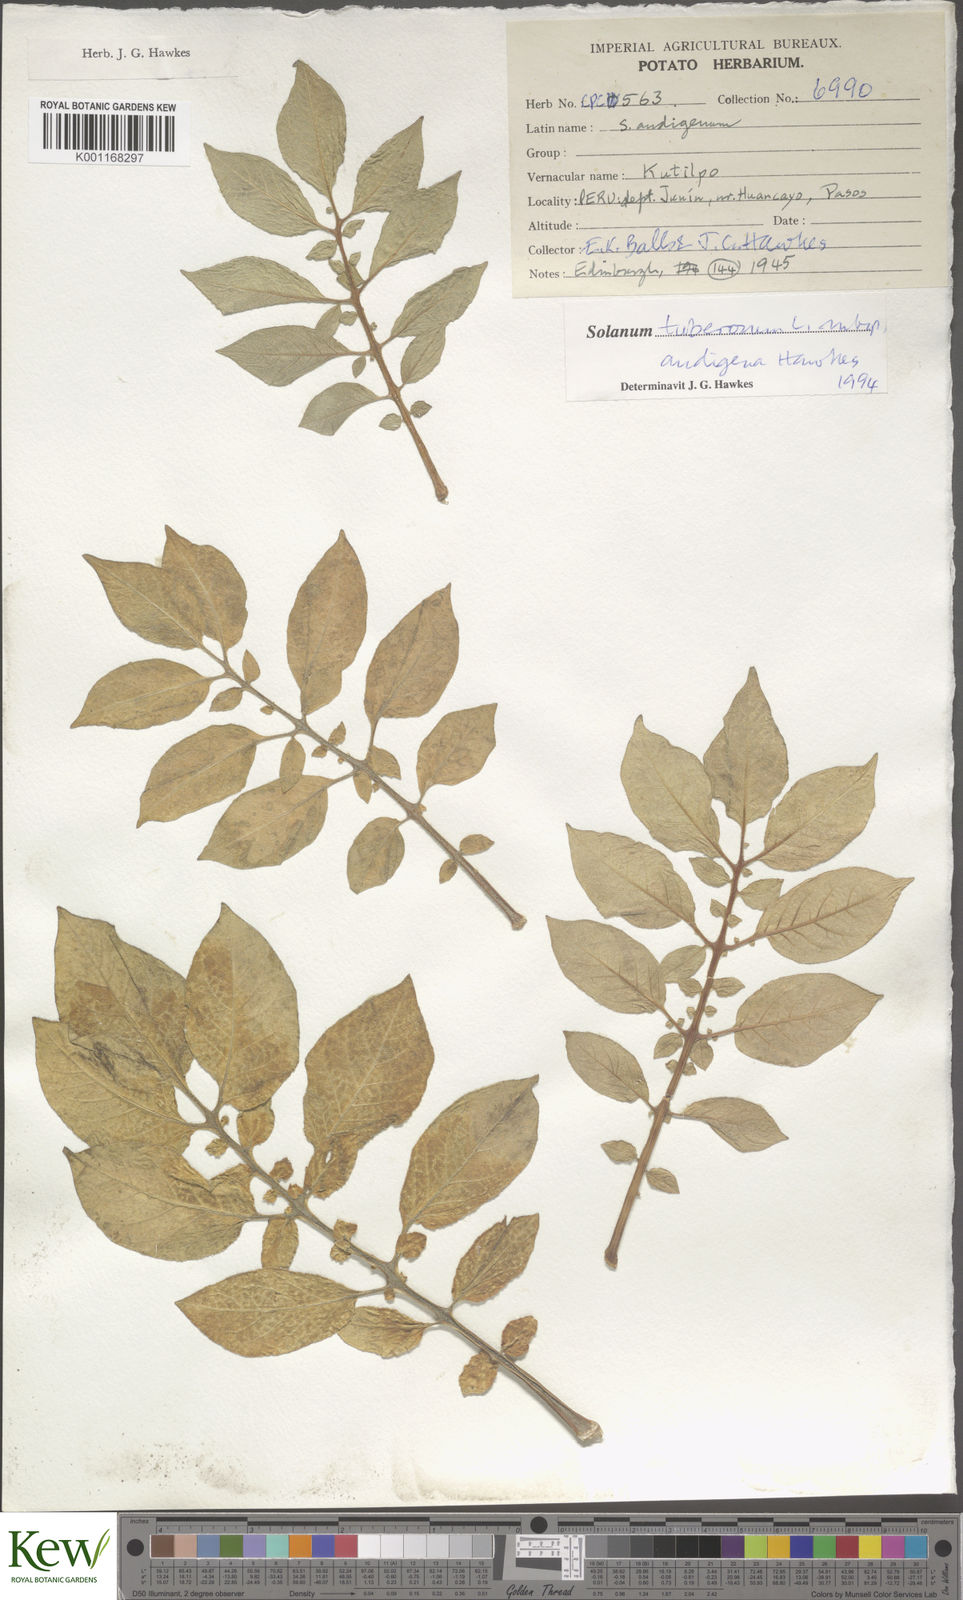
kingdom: Plantae
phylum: Tracheophyta
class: Magnoliopsida
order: Solanales
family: Solanaceae
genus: Solanum
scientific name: Solanum tuberosum
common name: Potato
